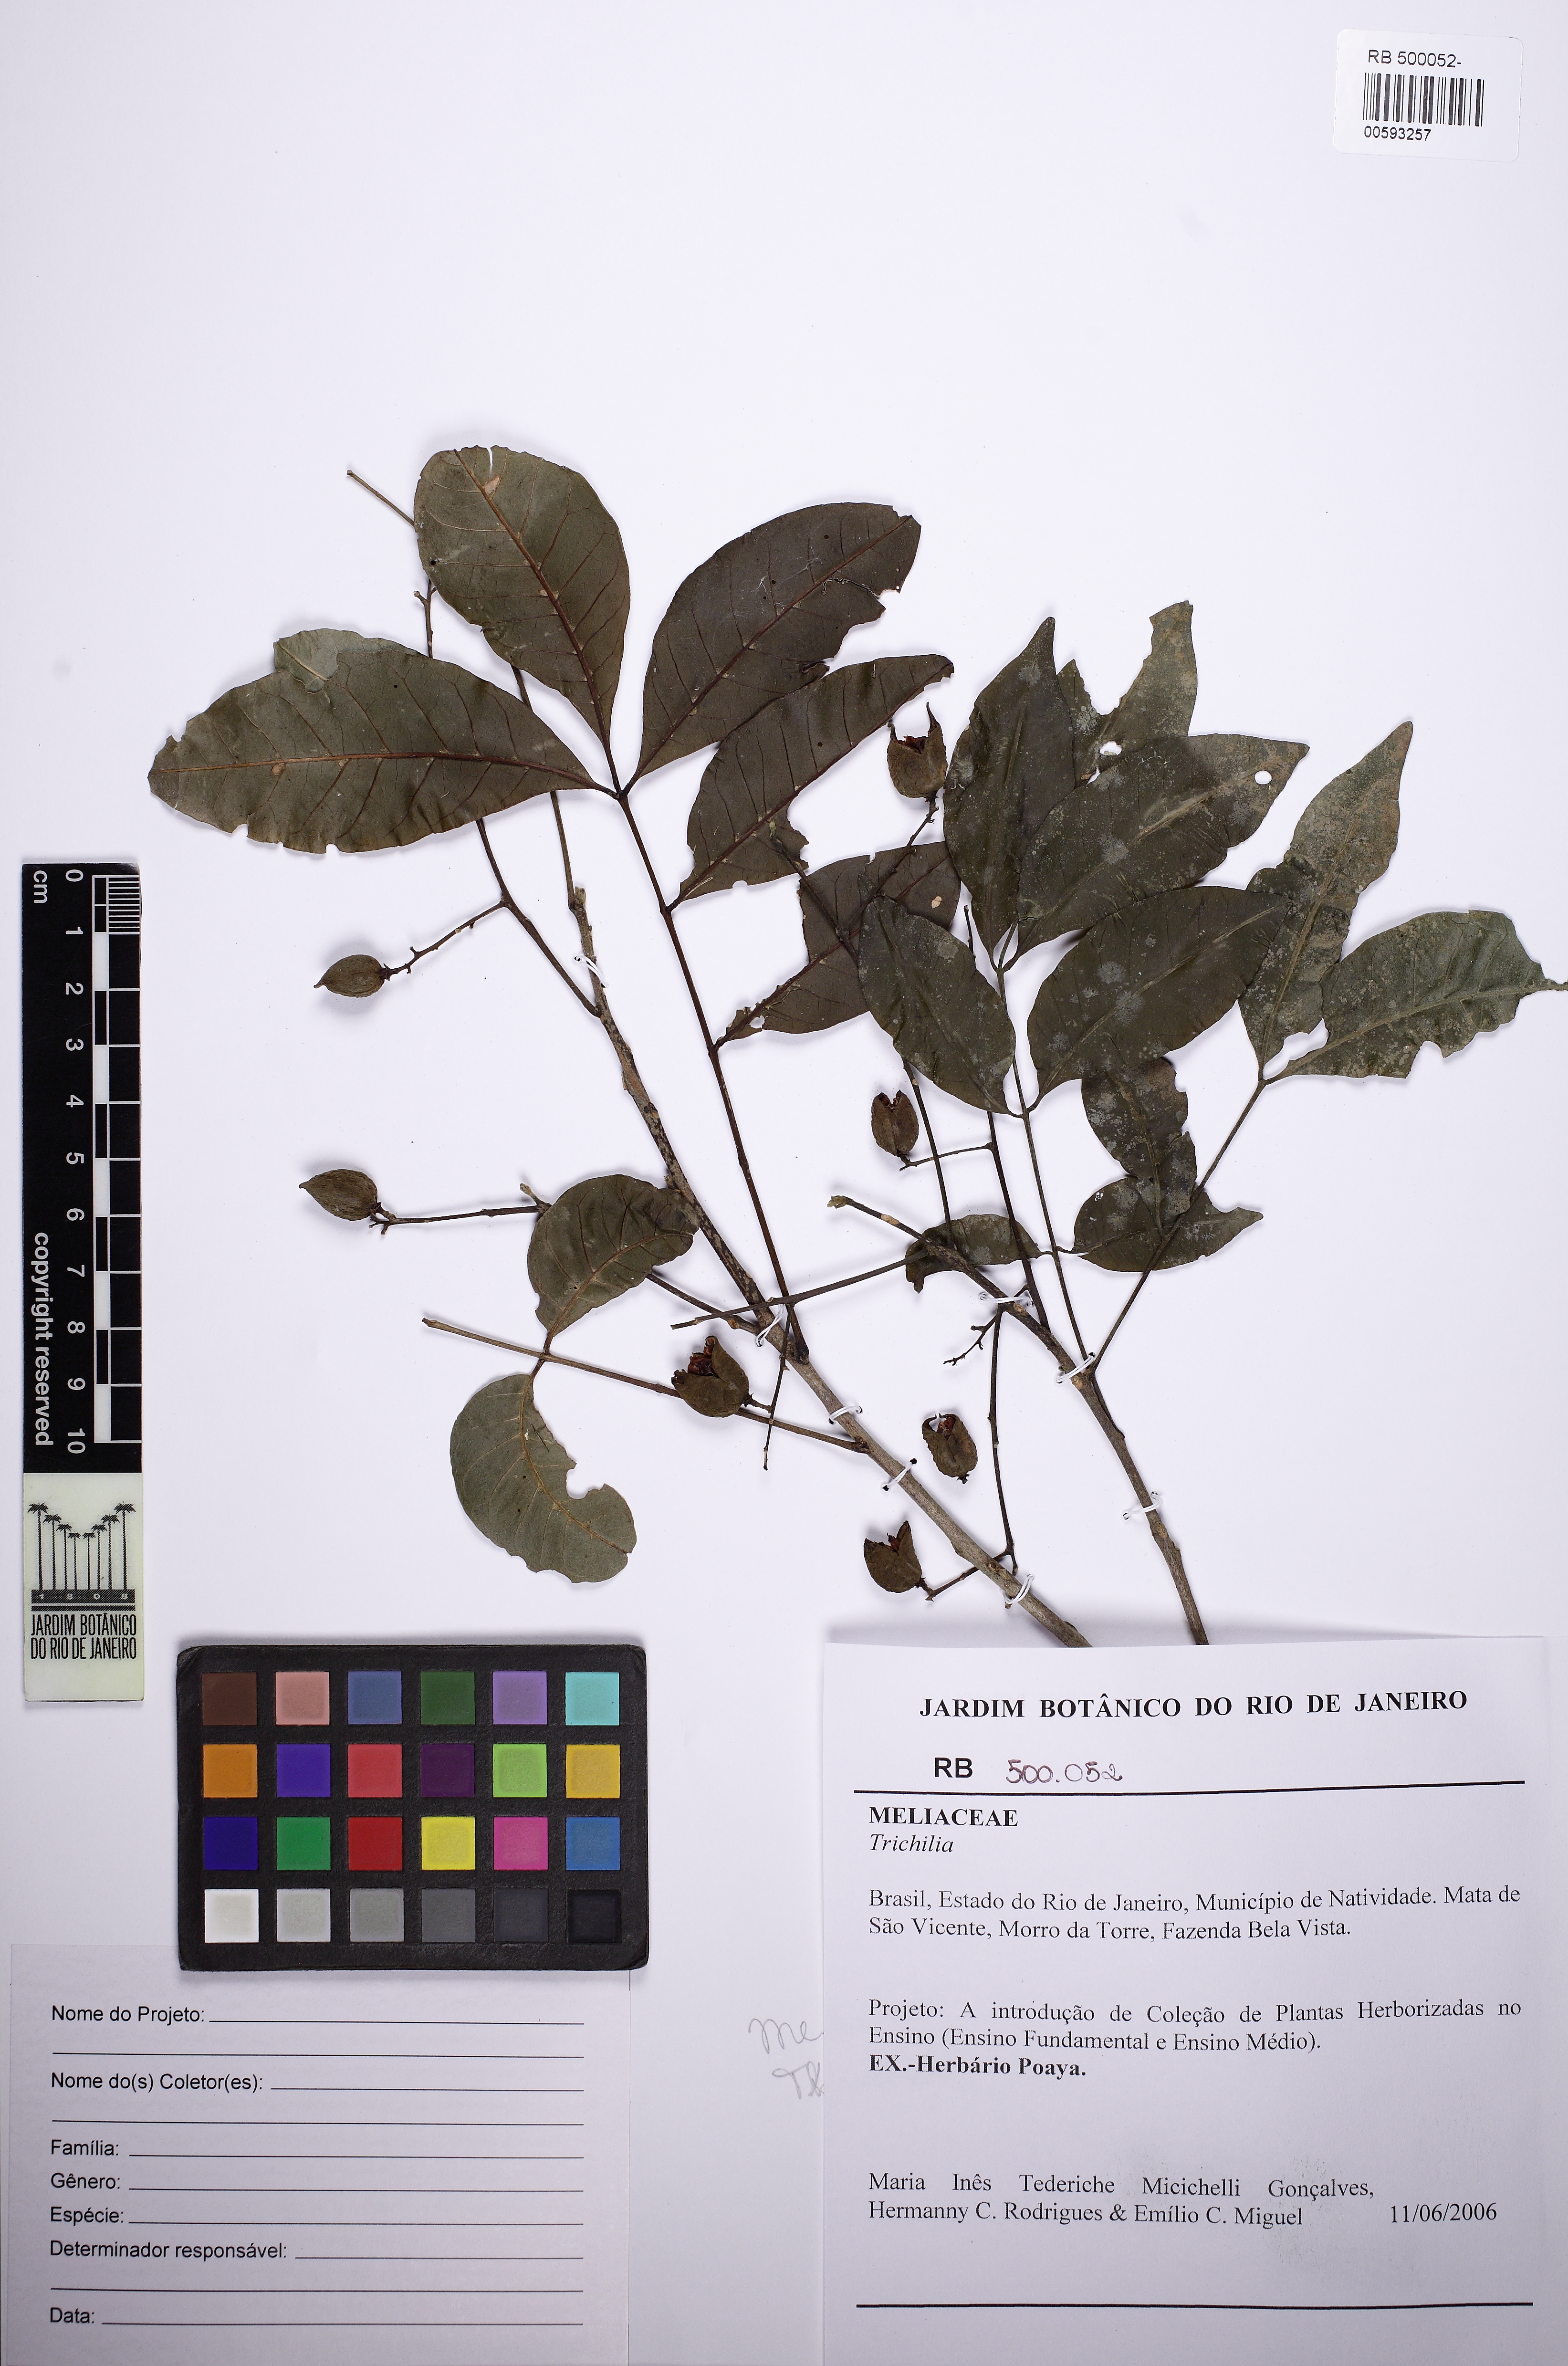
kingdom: Plantae
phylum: Tracheophyta
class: Magnoliopsida
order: Sapindales
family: Meliaceae
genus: Trichilia
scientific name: Trichilia
